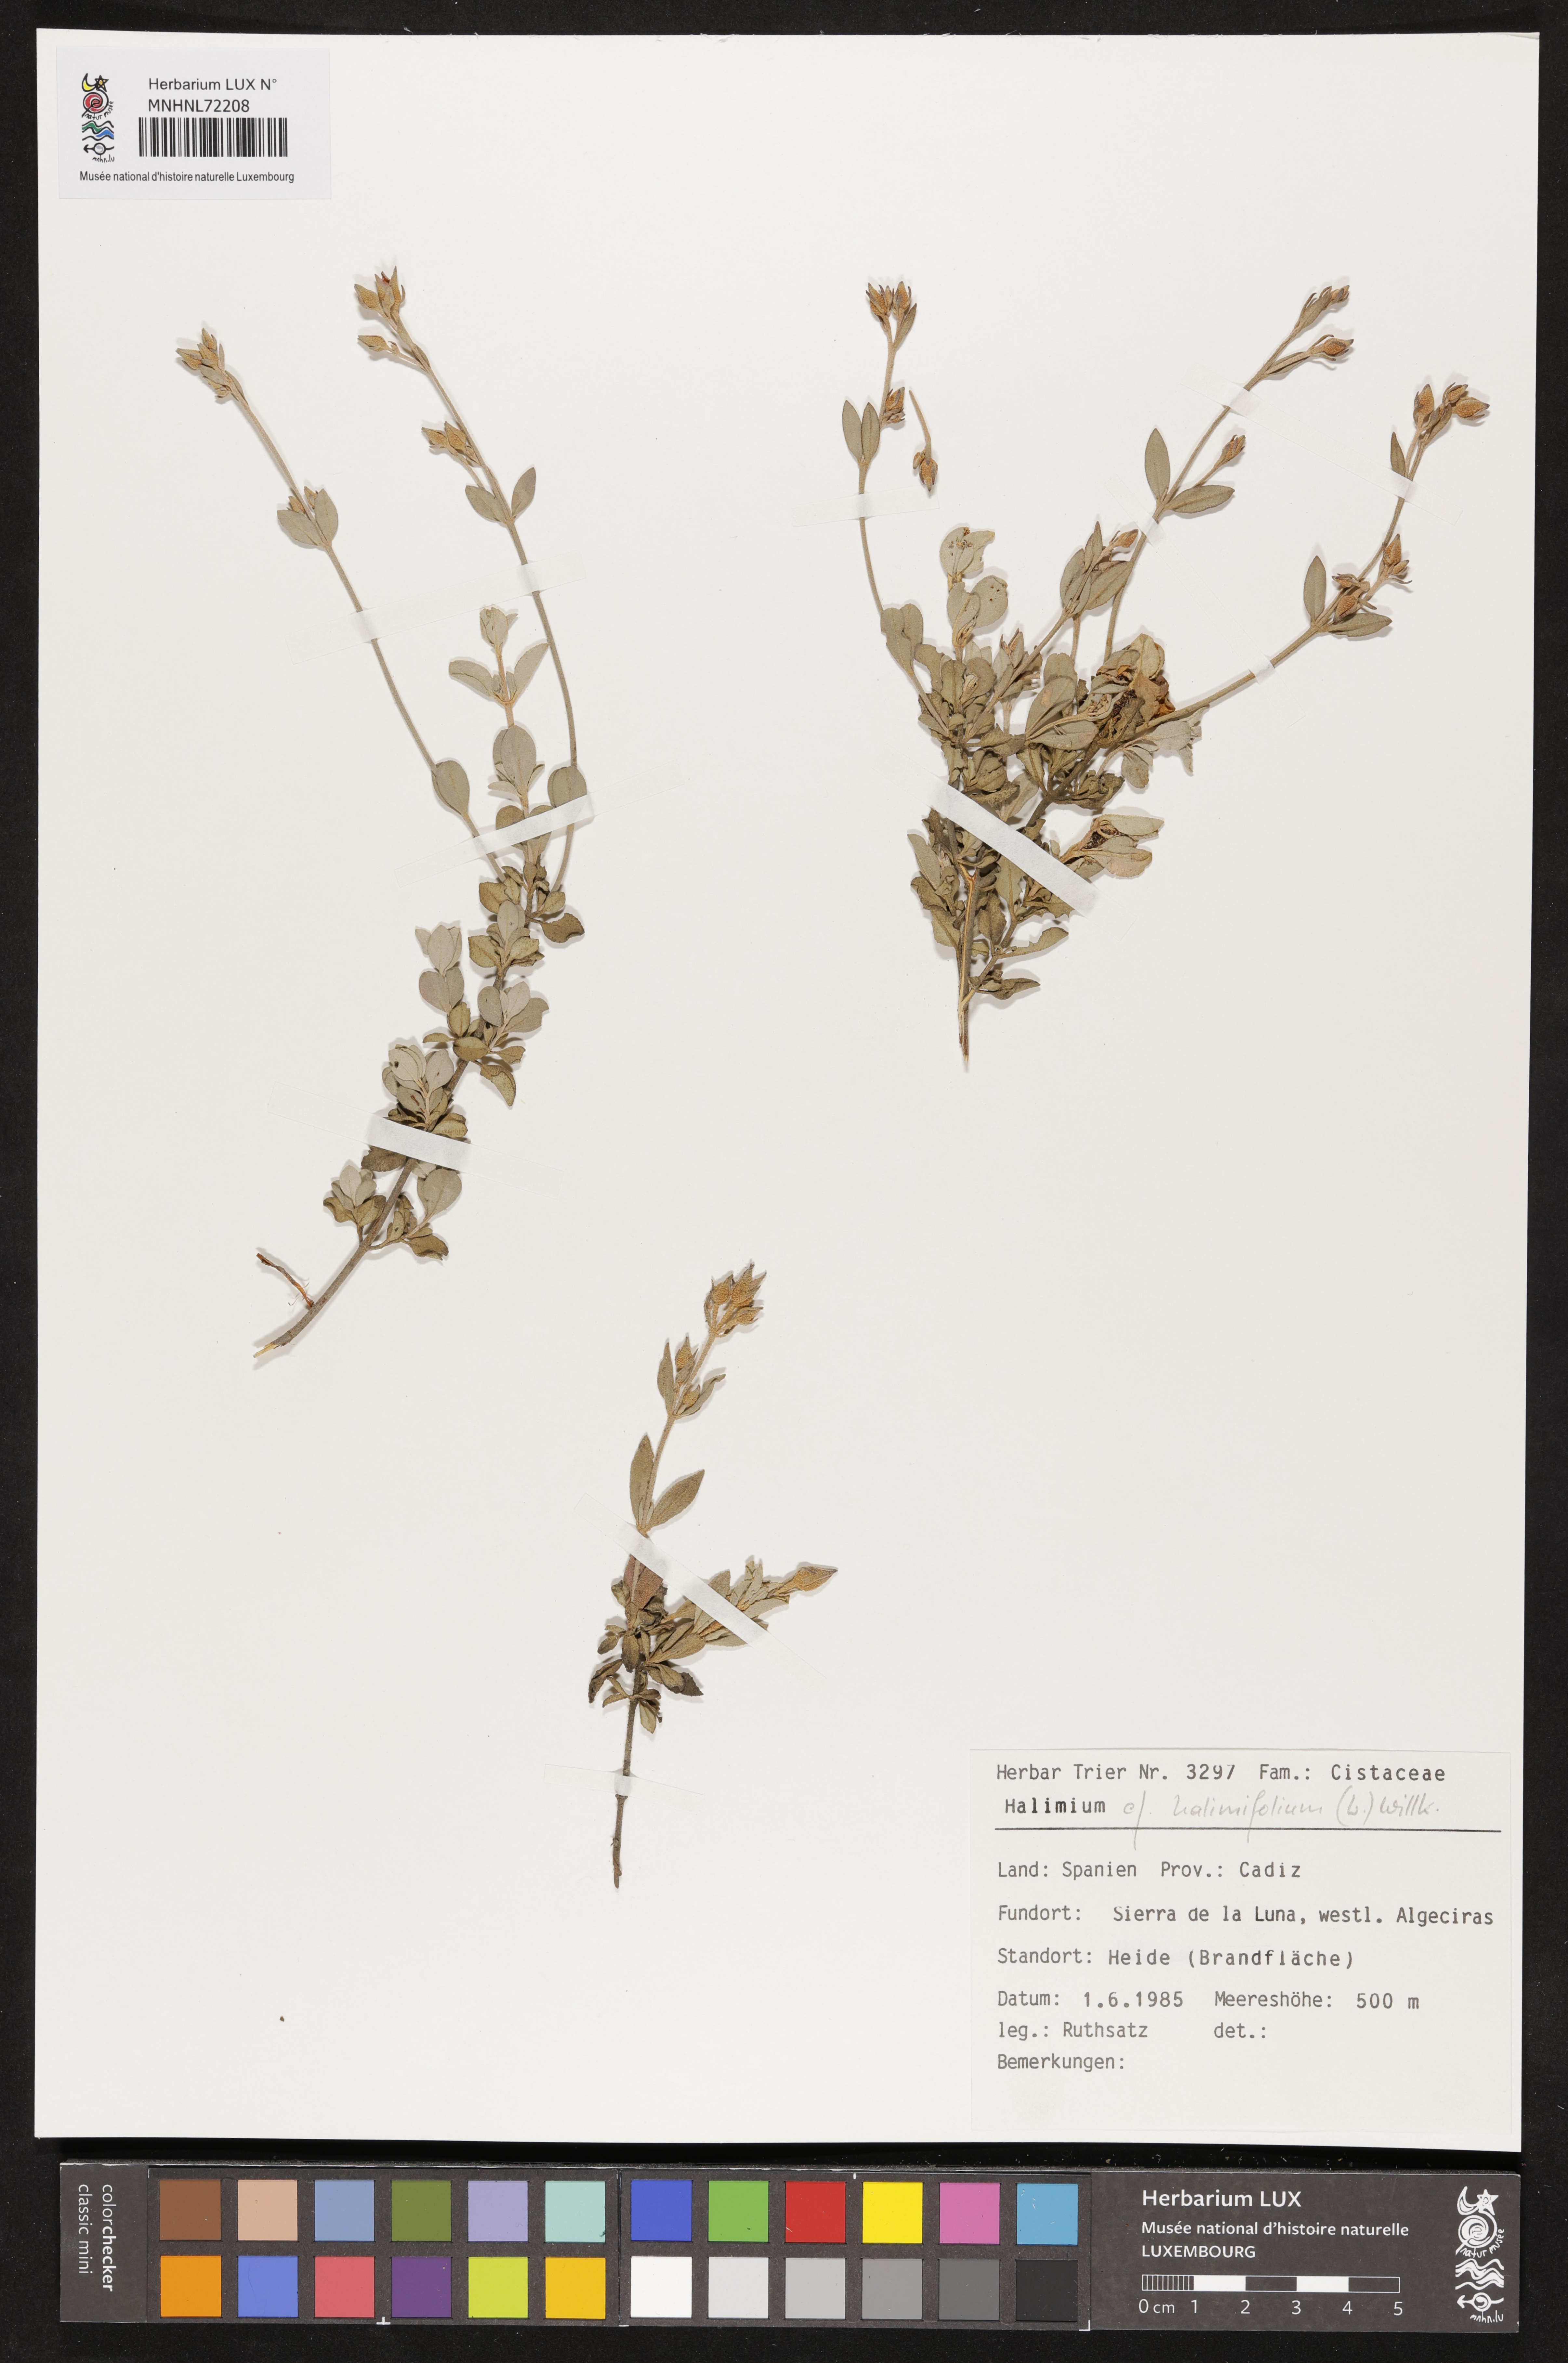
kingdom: Plantae
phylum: Tracheophyta
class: Magnoliopsida
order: Malvales
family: Cistaceae
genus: Halimium
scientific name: Halimium halimifolium
